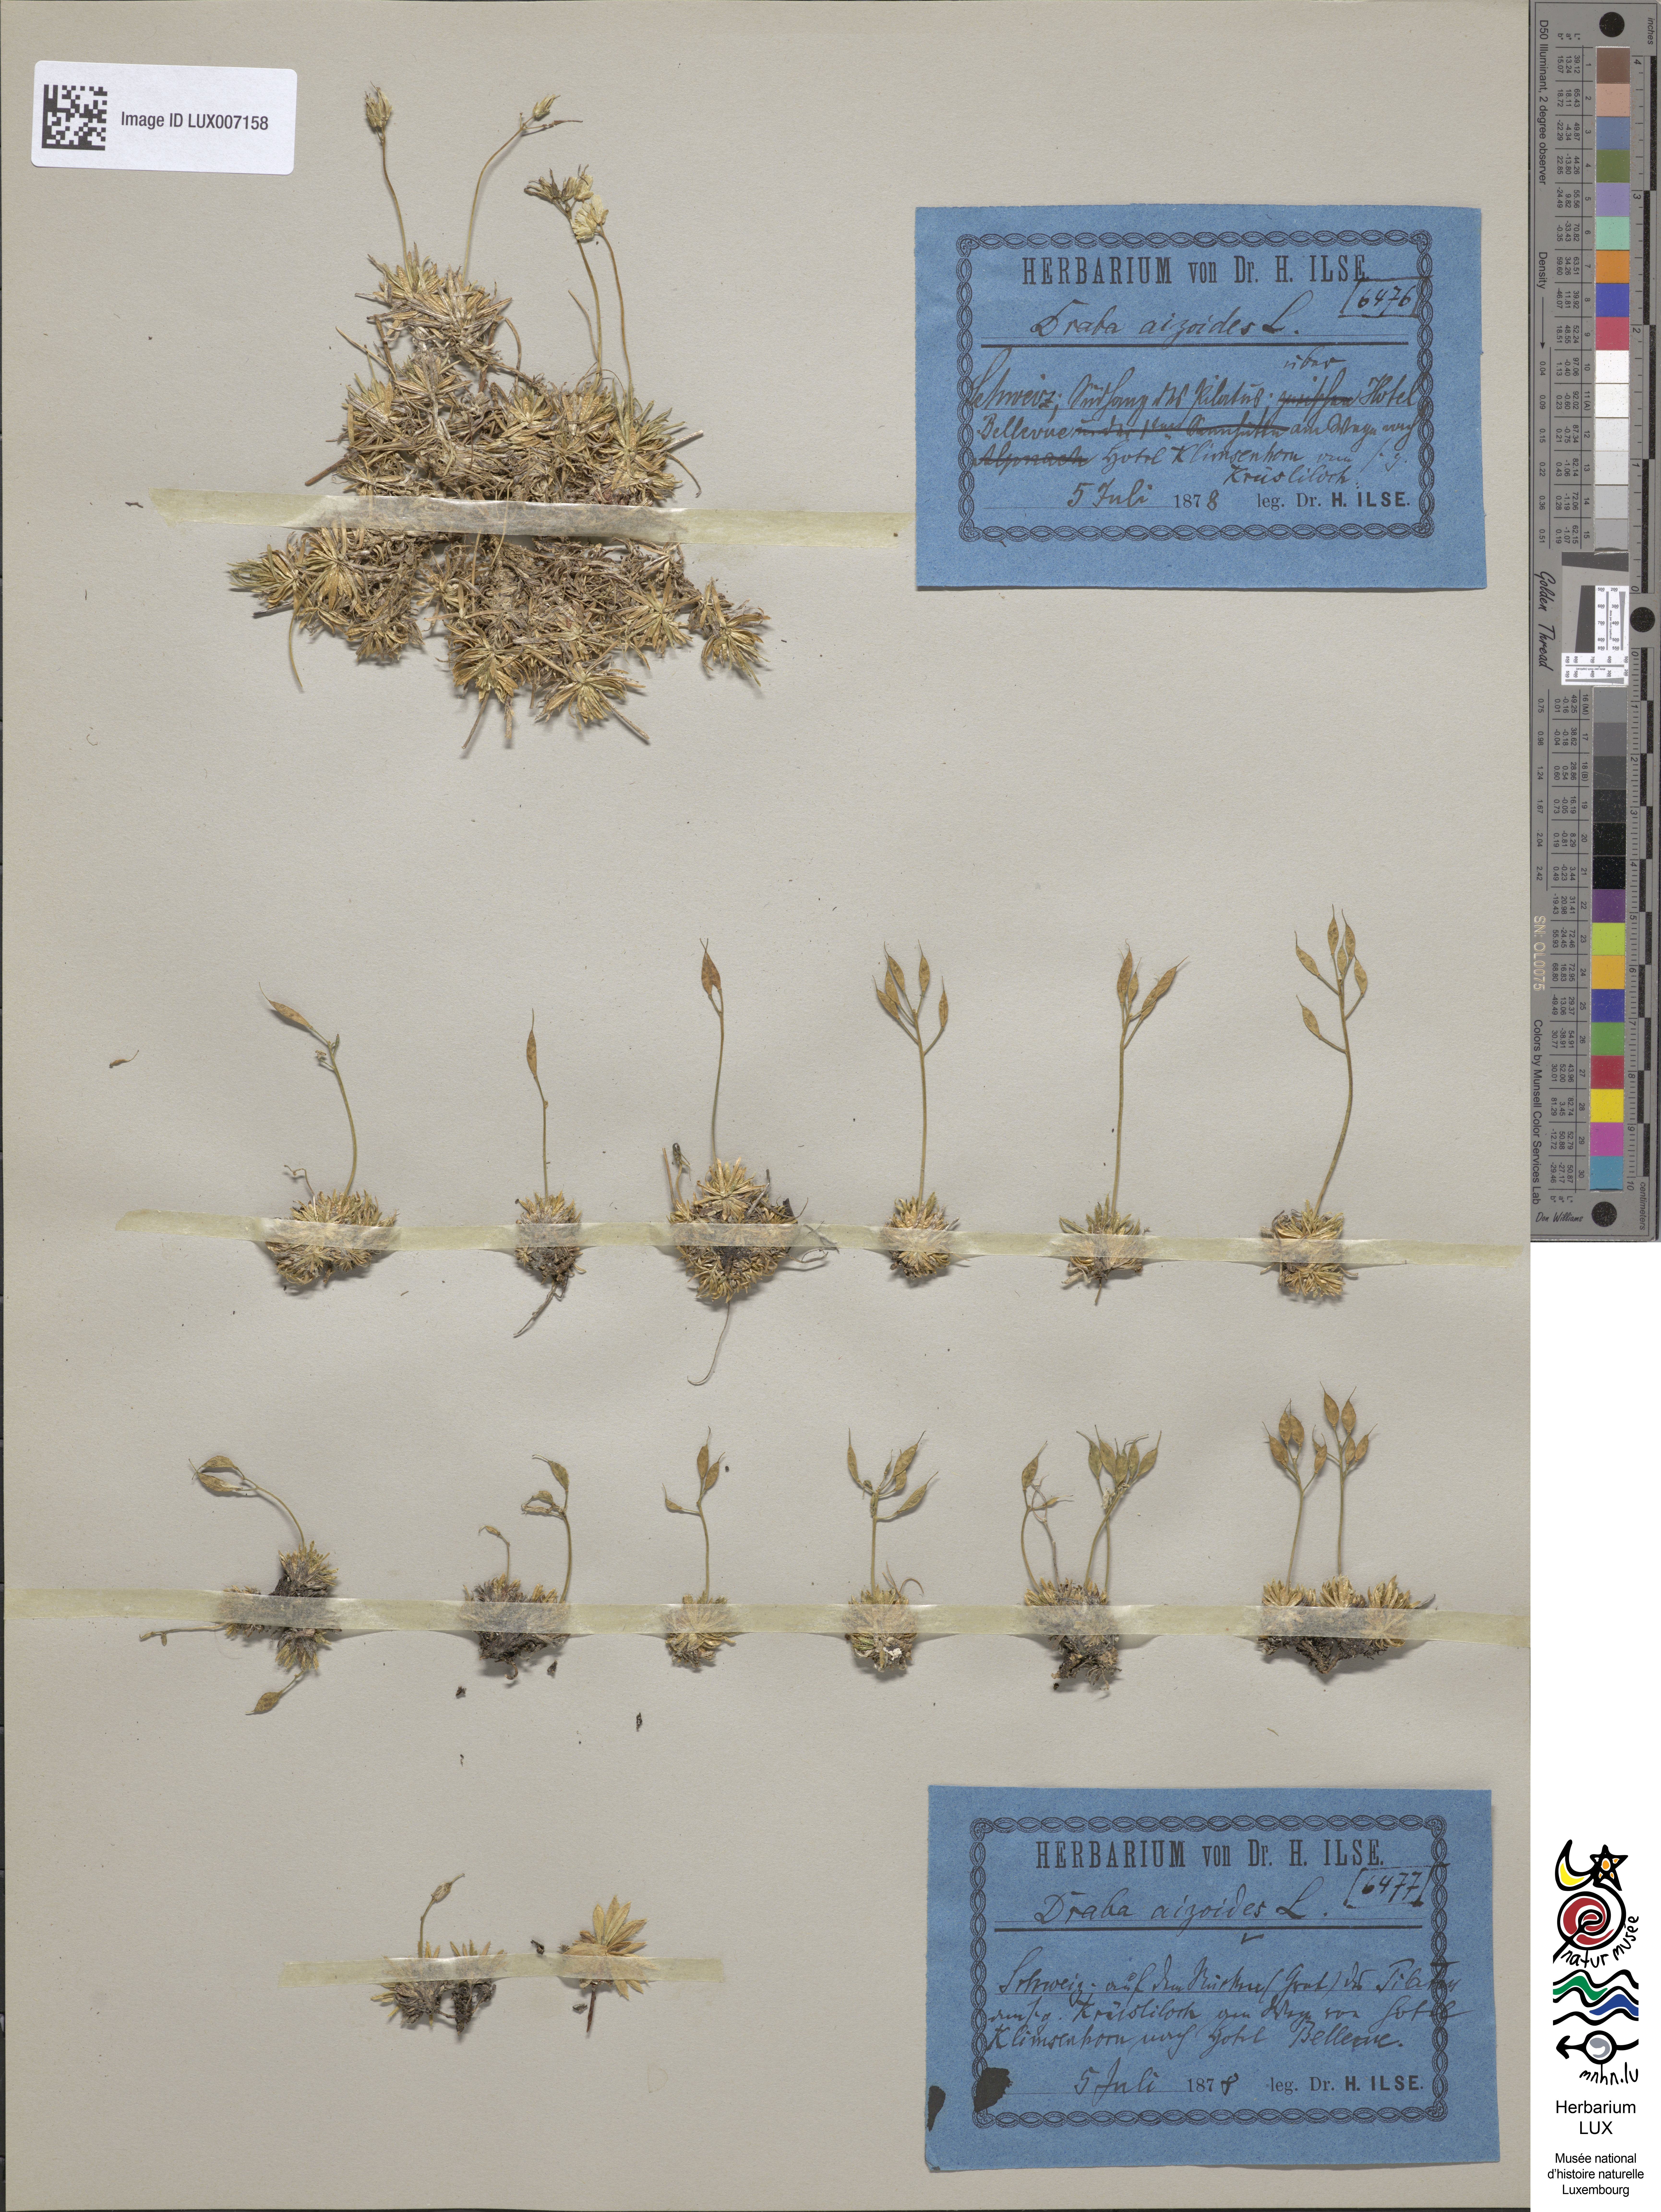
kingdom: Plantae
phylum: Tracheophyta
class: Magnoliopsida
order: Brassicales
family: Brassicaceae
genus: Draba
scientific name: Draba aizoides
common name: Yellow whitlowgrass
